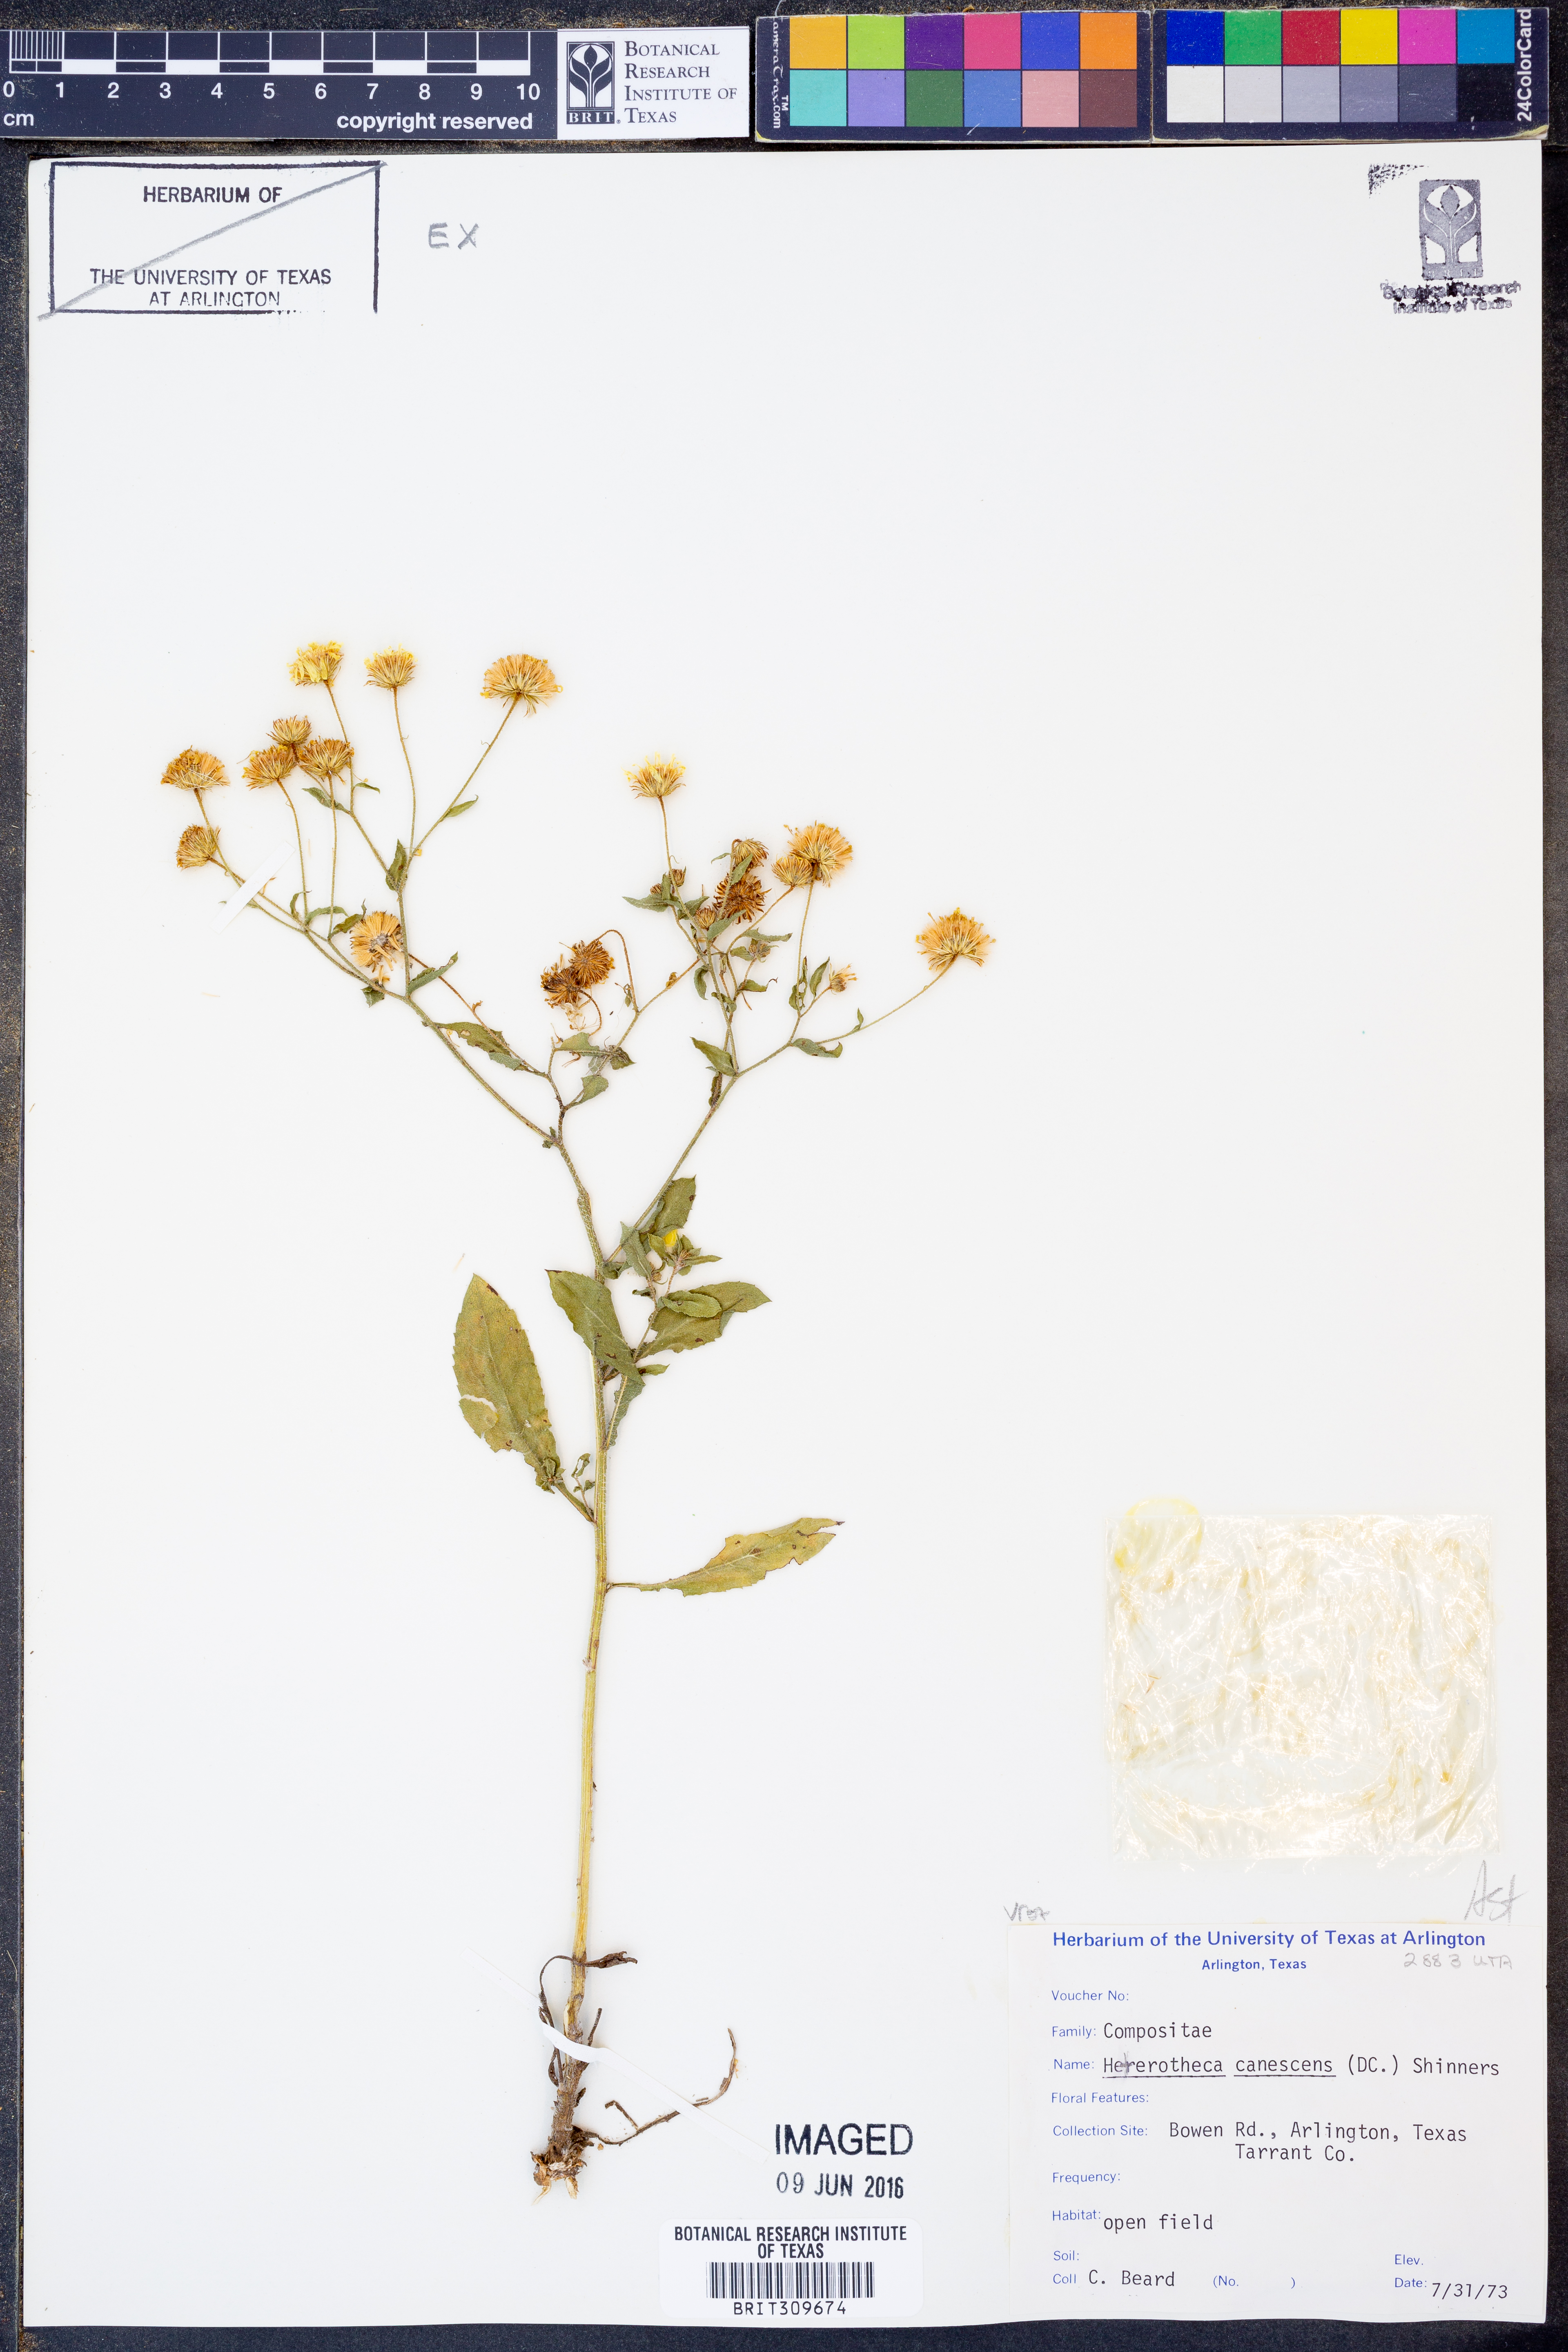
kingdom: Plantae
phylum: Tracheophyta
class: Magnoliopsida
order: Asterales
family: Asteraceae
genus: Heterotheca
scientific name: Heterotheca canescens
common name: Hoary golden-aster
